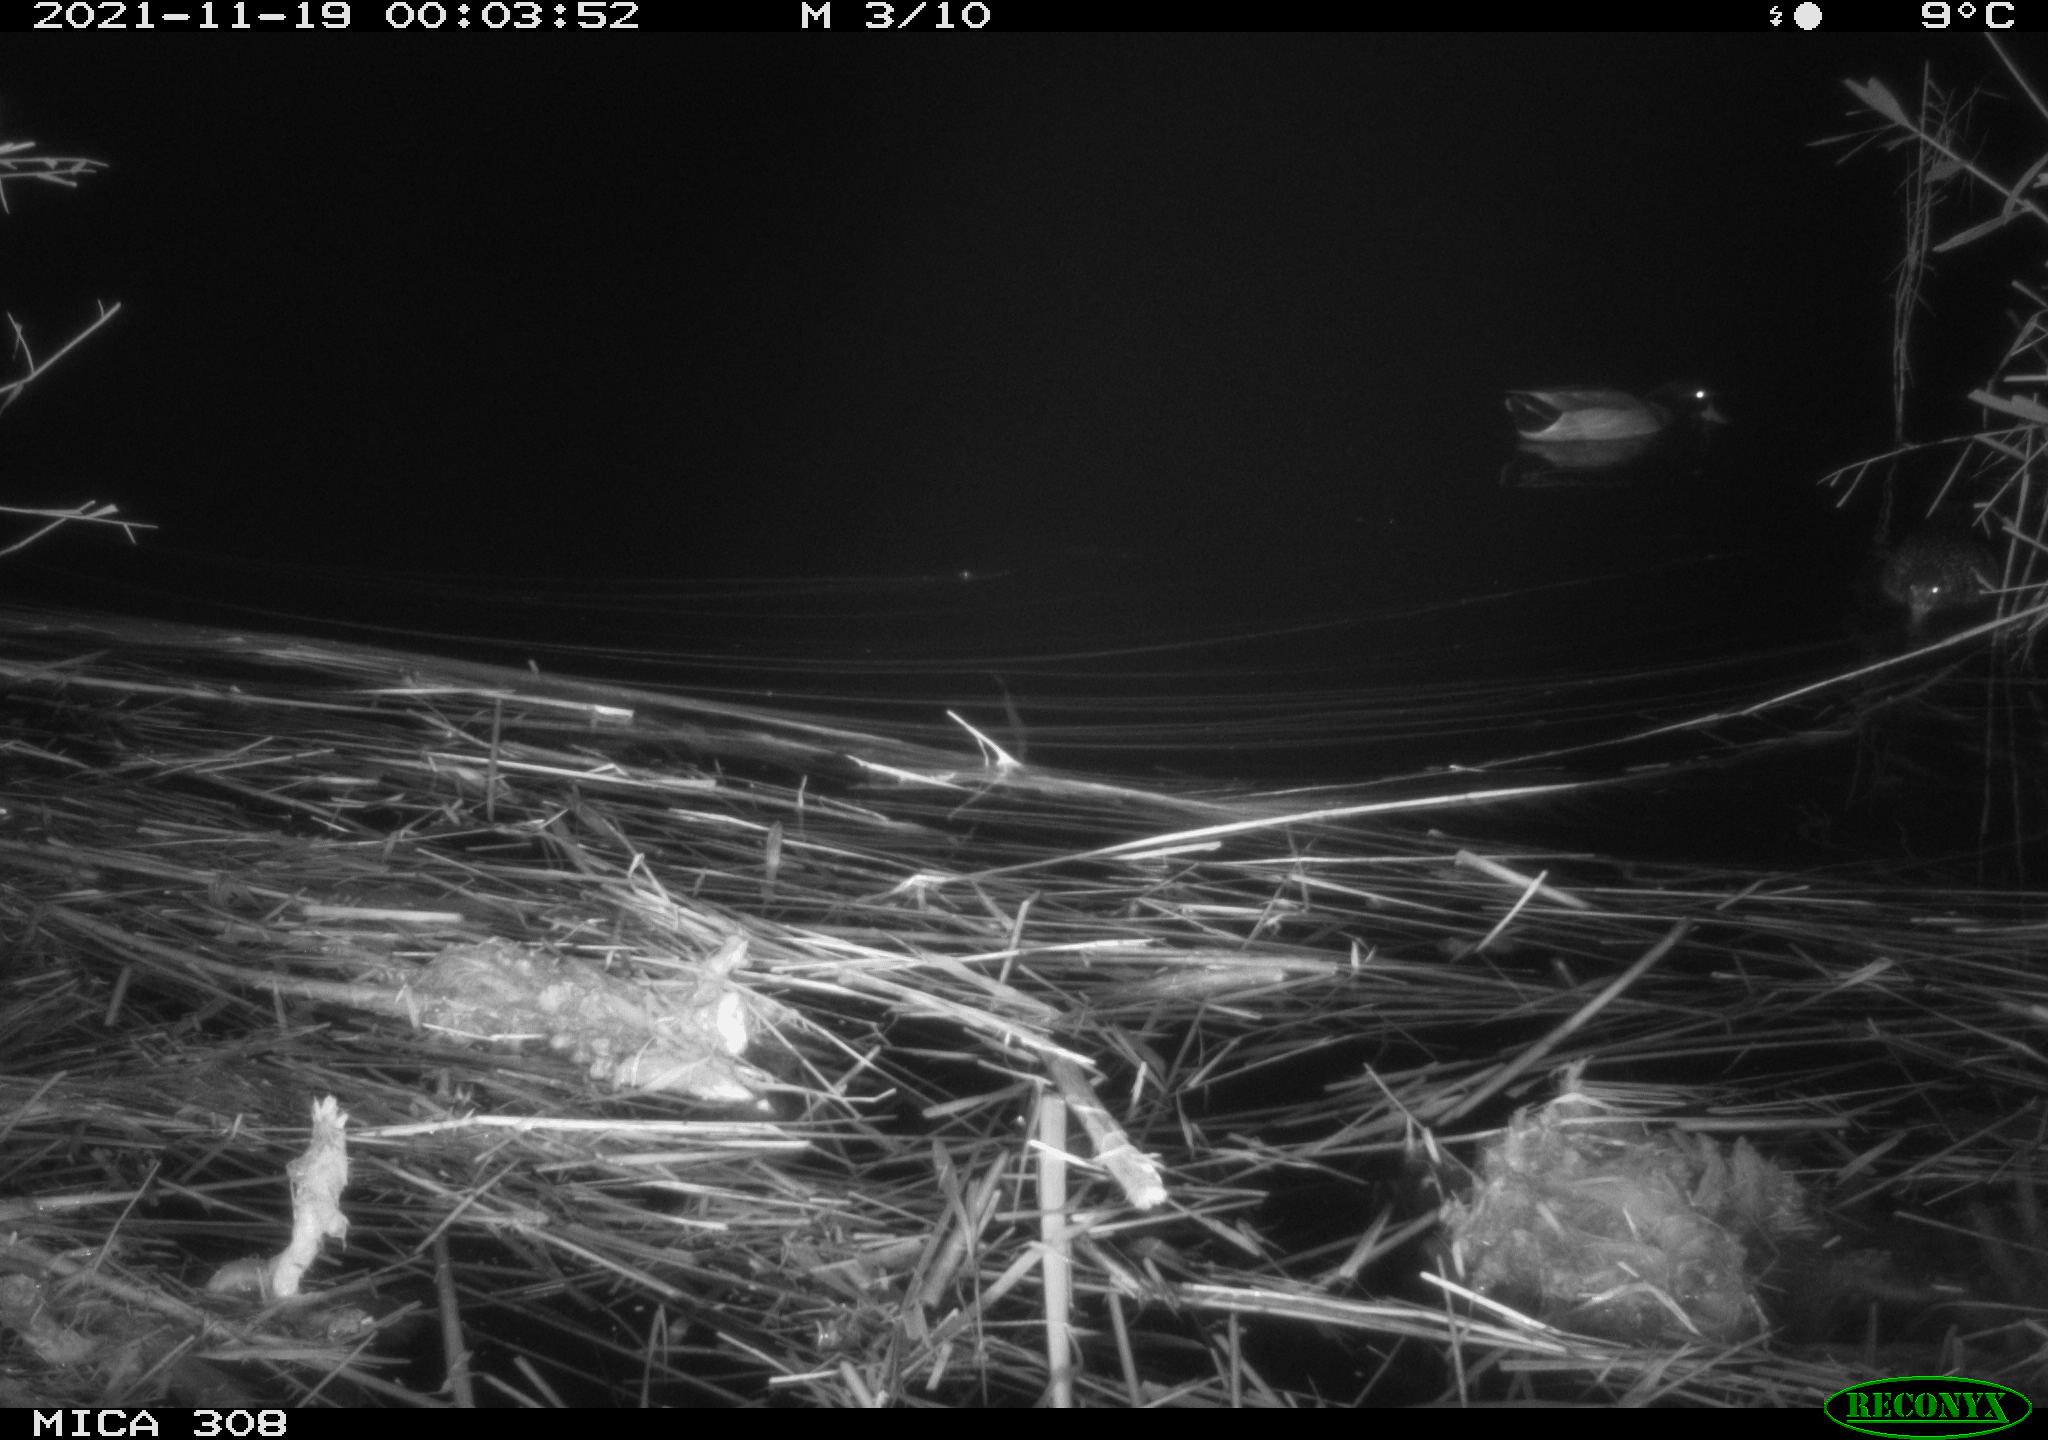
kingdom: Animalia
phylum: Chordata
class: Aves
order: Anseriformes
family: Anatidae
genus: Anas
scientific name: Anas platyrhynchos
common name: Mallard
